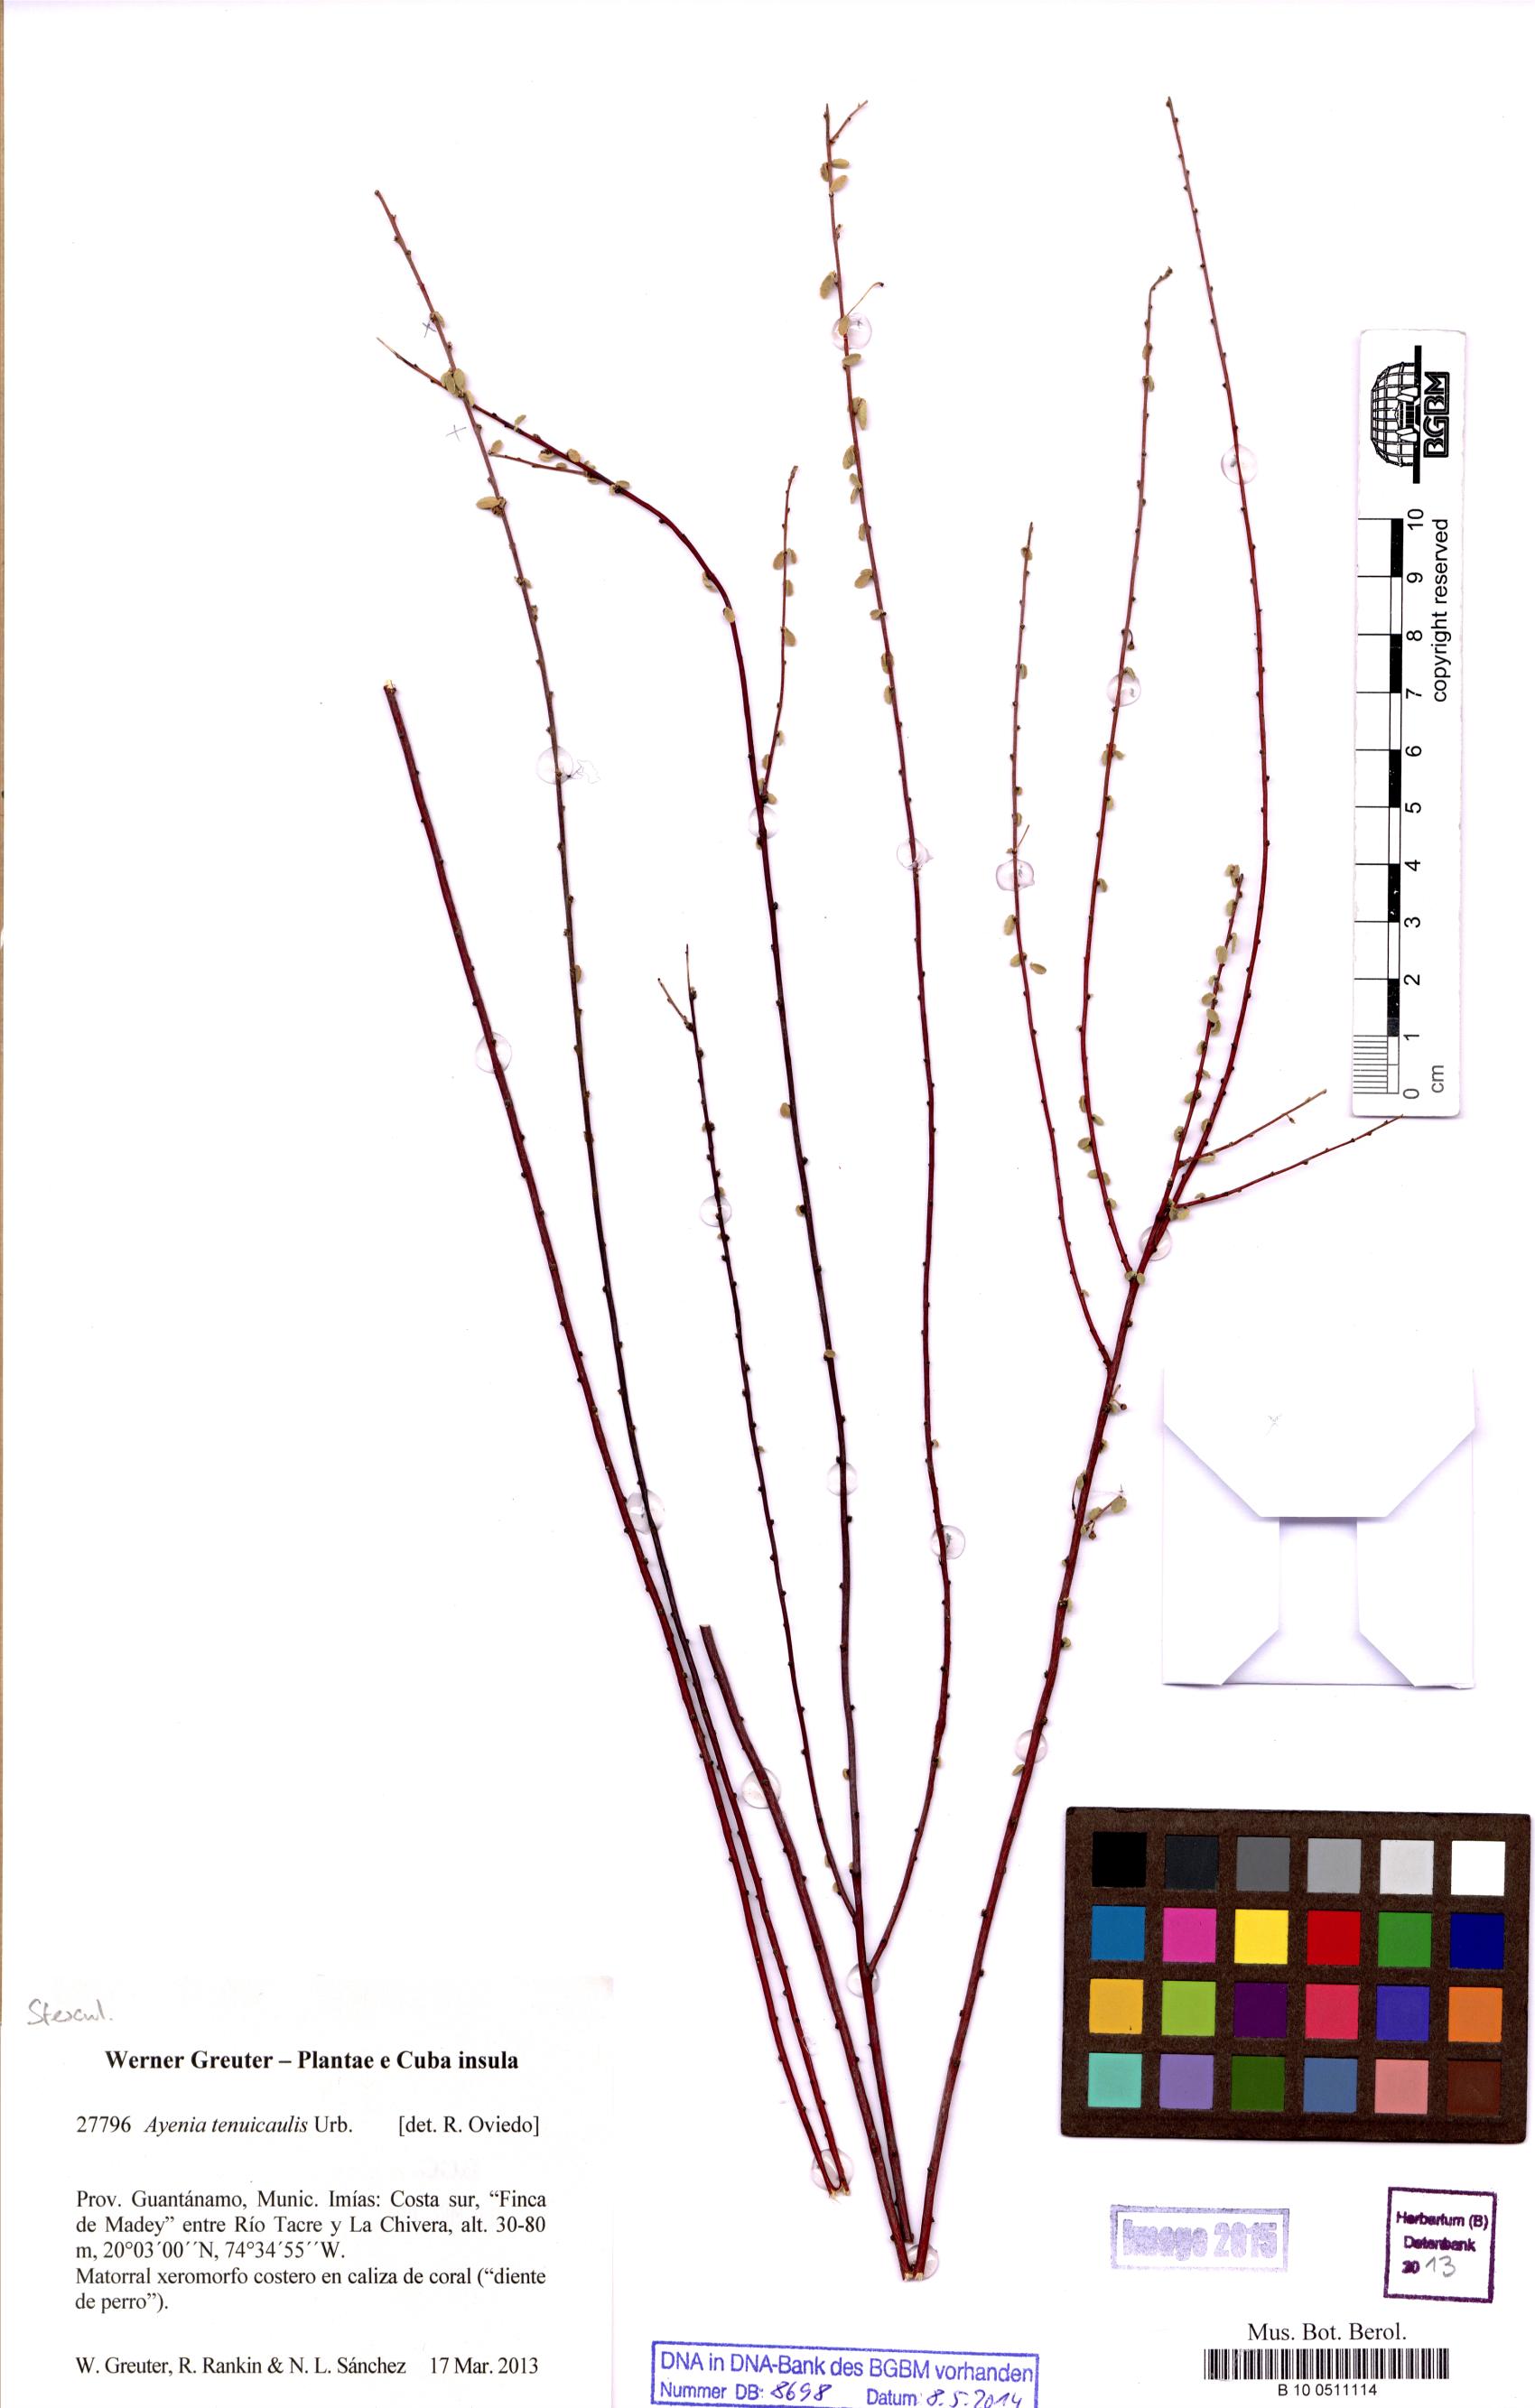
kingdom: Plantae
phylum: Tracheophyta
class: Magnoliopsida
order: Malvales
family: Malvaceae
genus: Ayenia
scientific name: Ayenia euphrasiifolia
